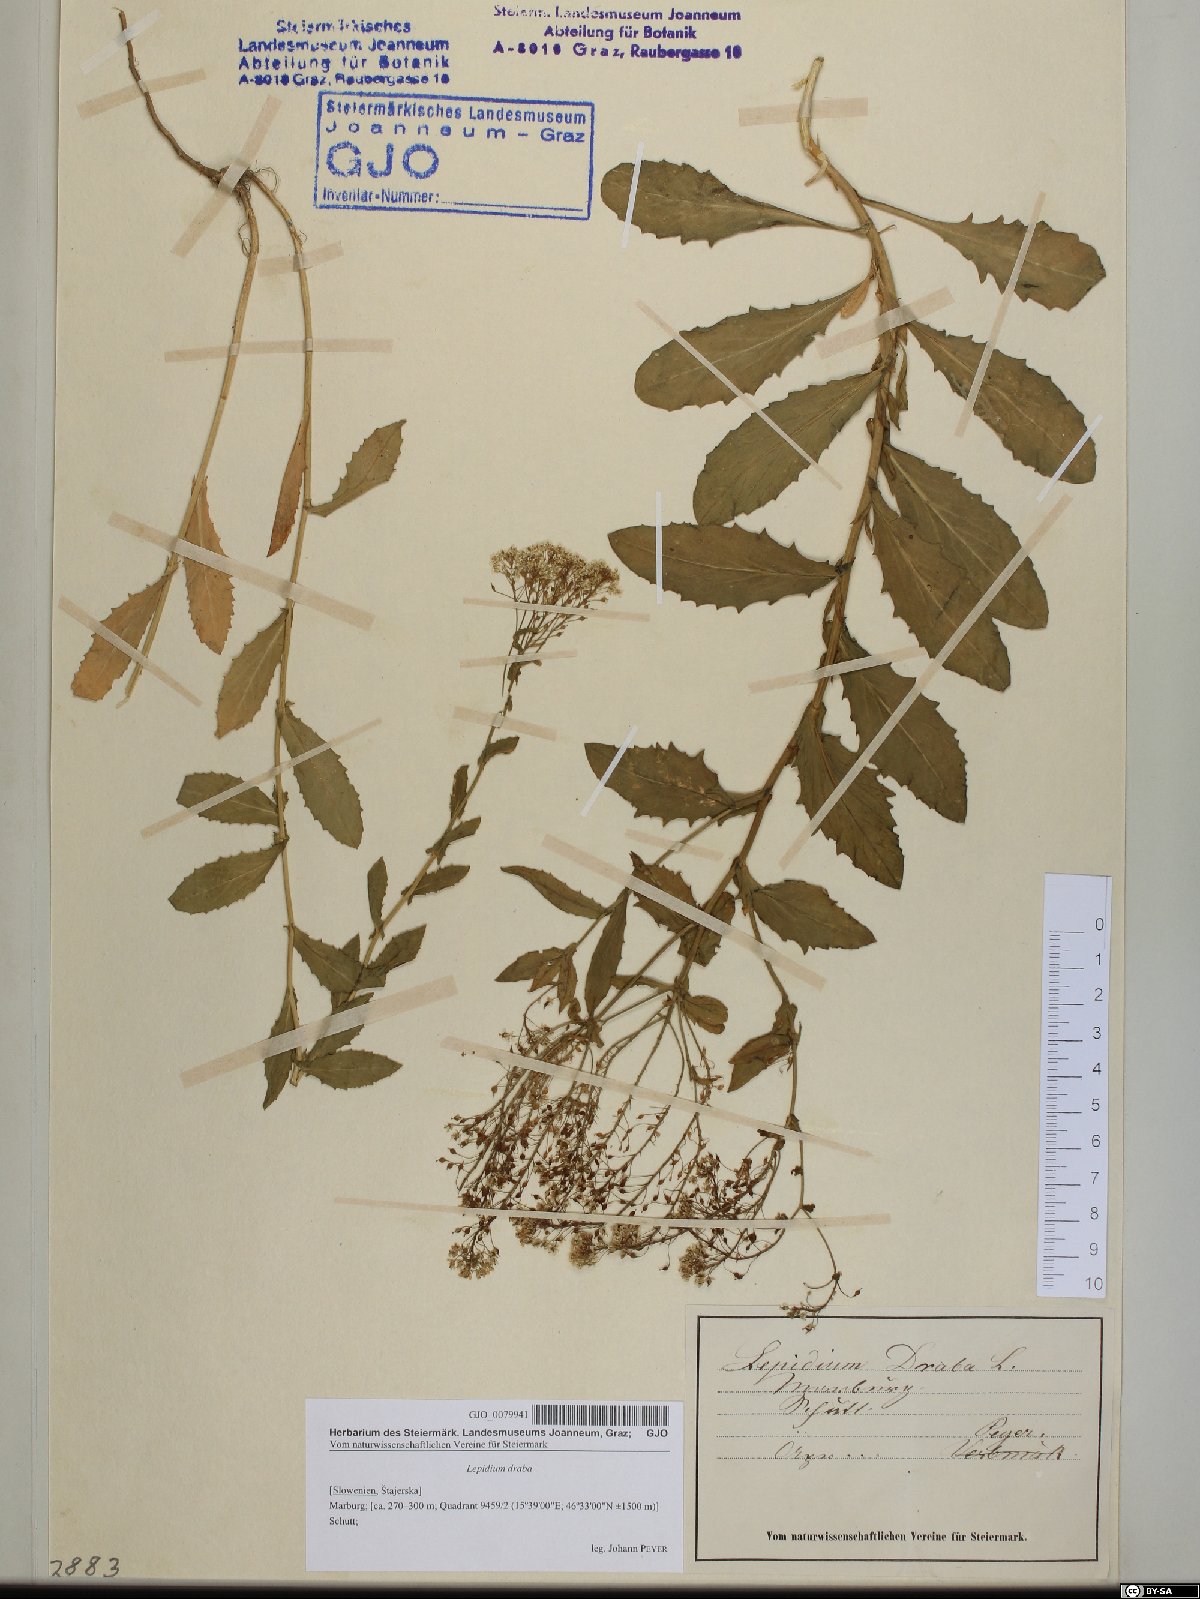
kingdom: Plantae
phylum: Tracheophyta
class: Magnoliopsida
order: Brassicales
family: Brassicaceae
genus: Lepidium
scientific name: Lepidium draba
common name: Hoary cress
